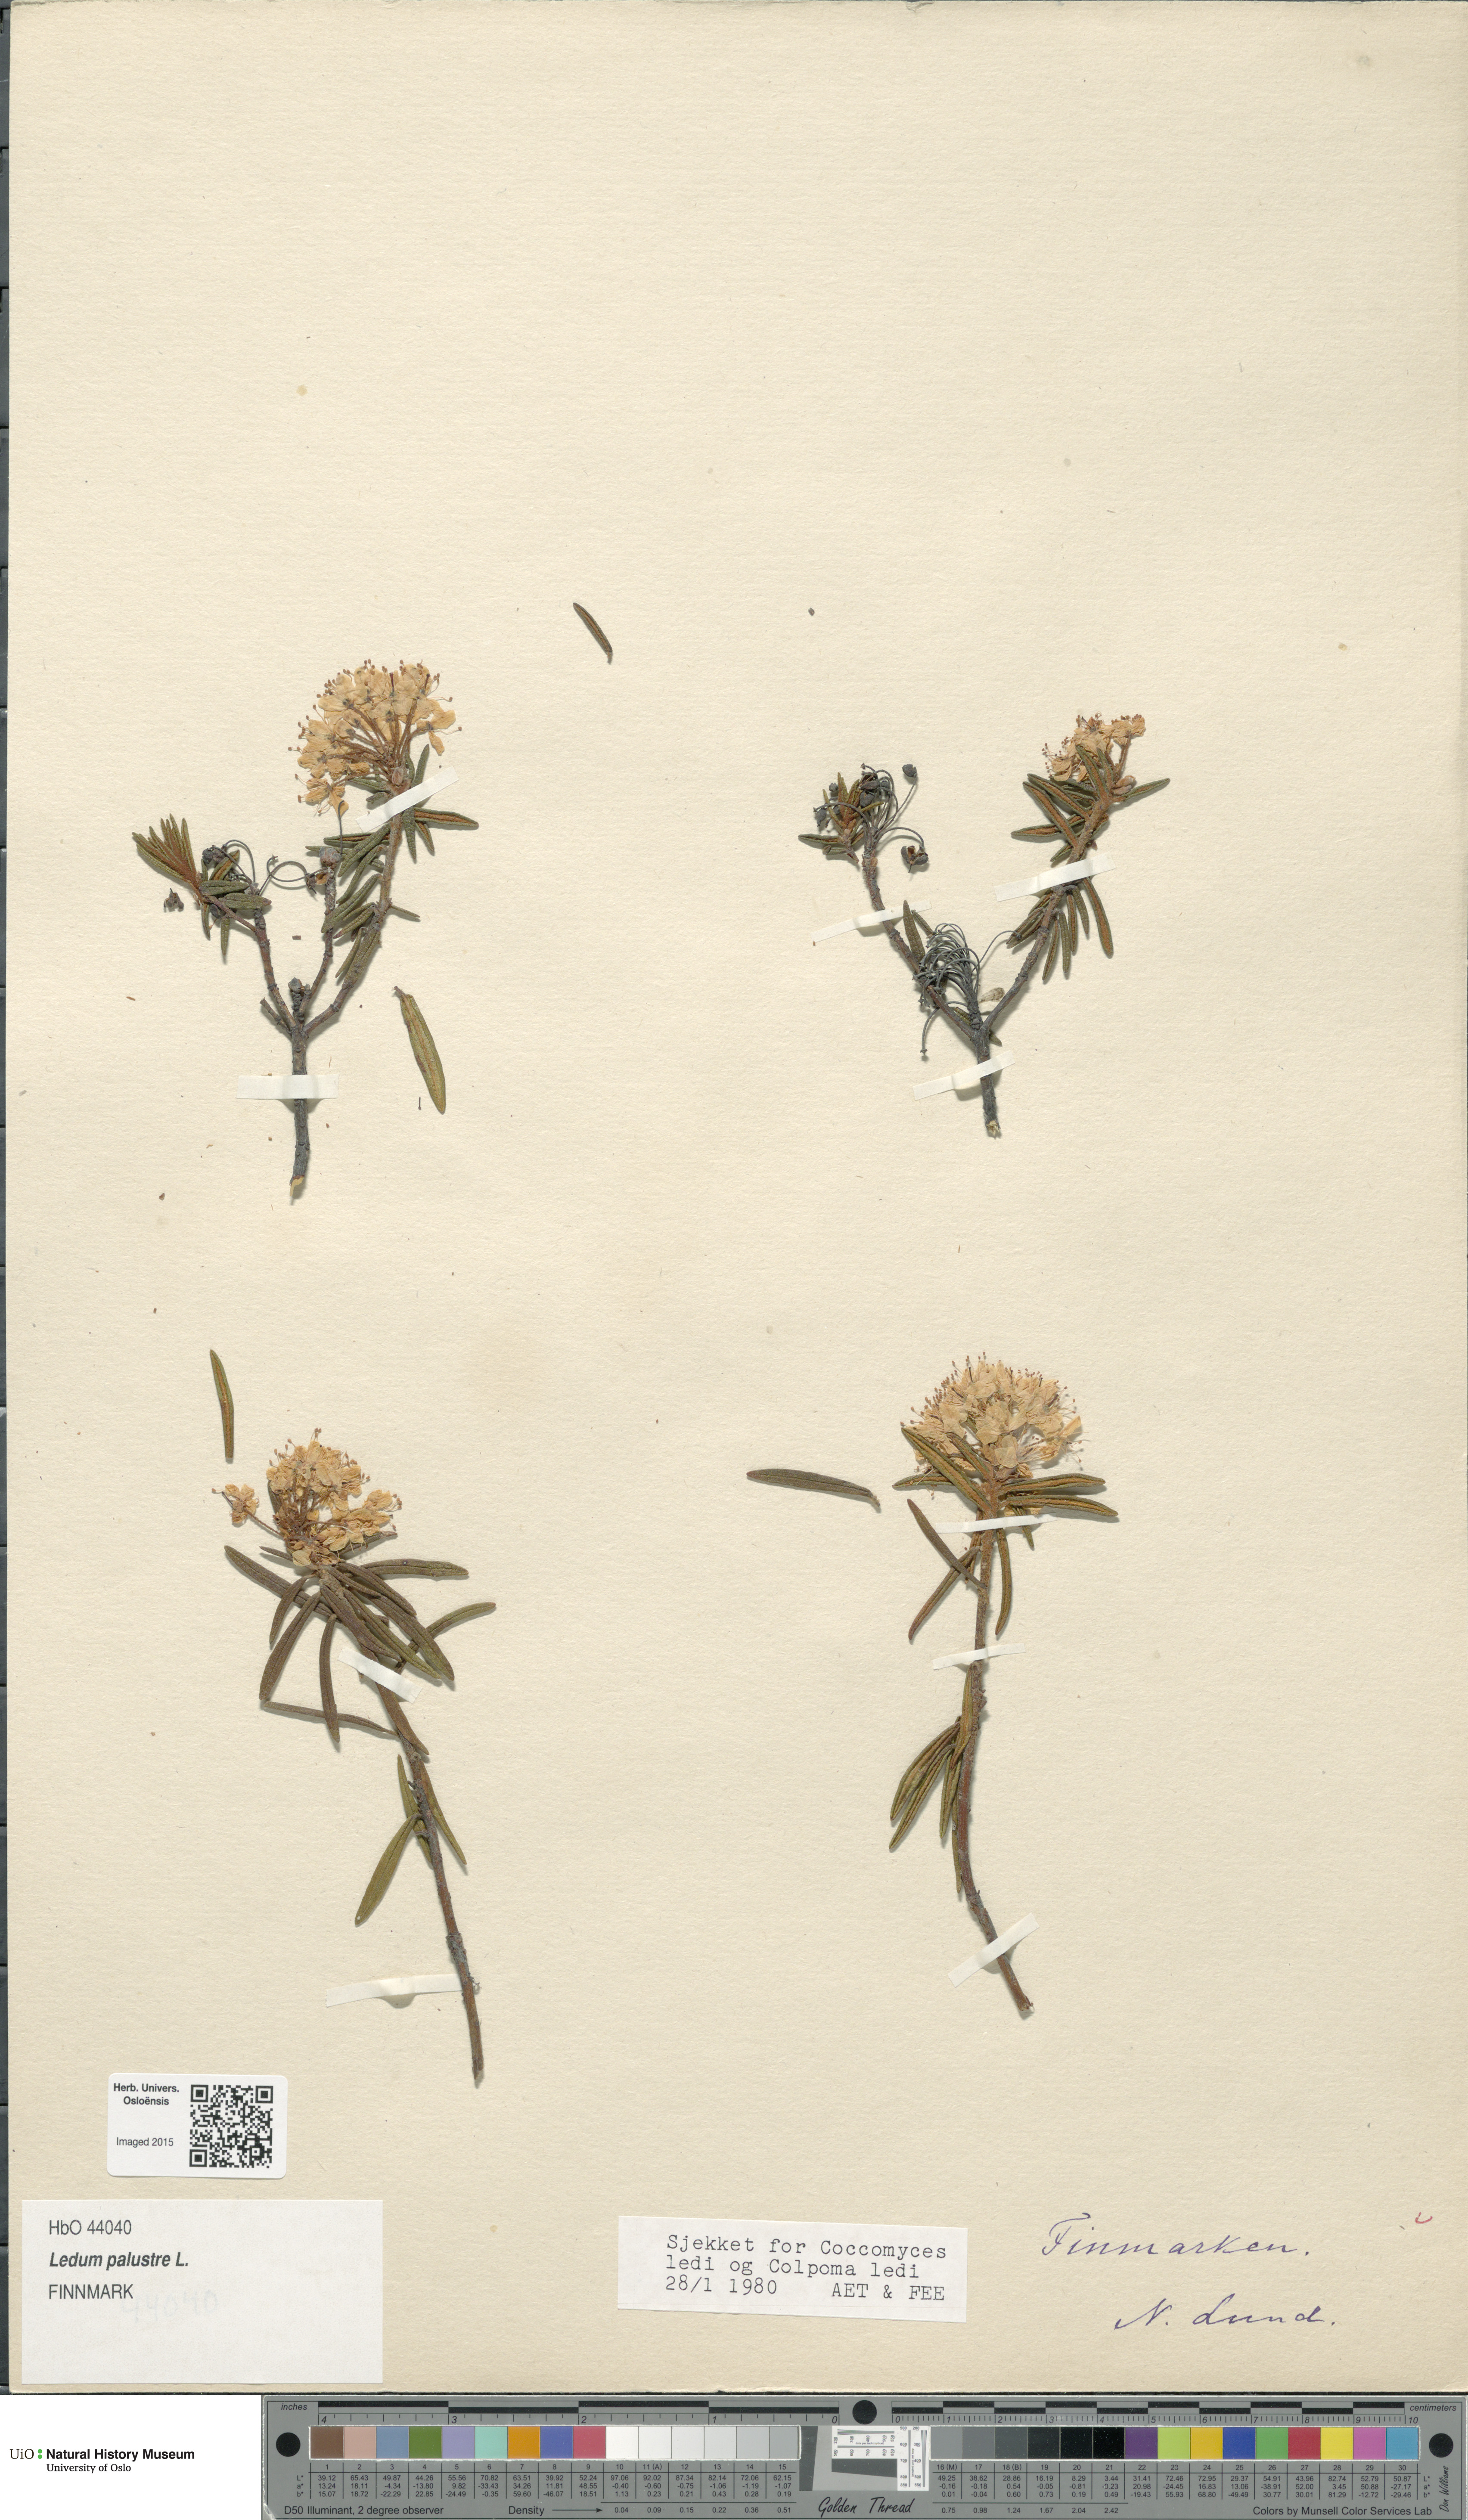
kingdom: Plantae
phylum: Tracheophyta
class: Magnoliopsida
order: Ericales
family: Ericaceae
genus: Rhododendron
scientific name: Rhododendron tomentosum
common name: Marsh labrador tea
